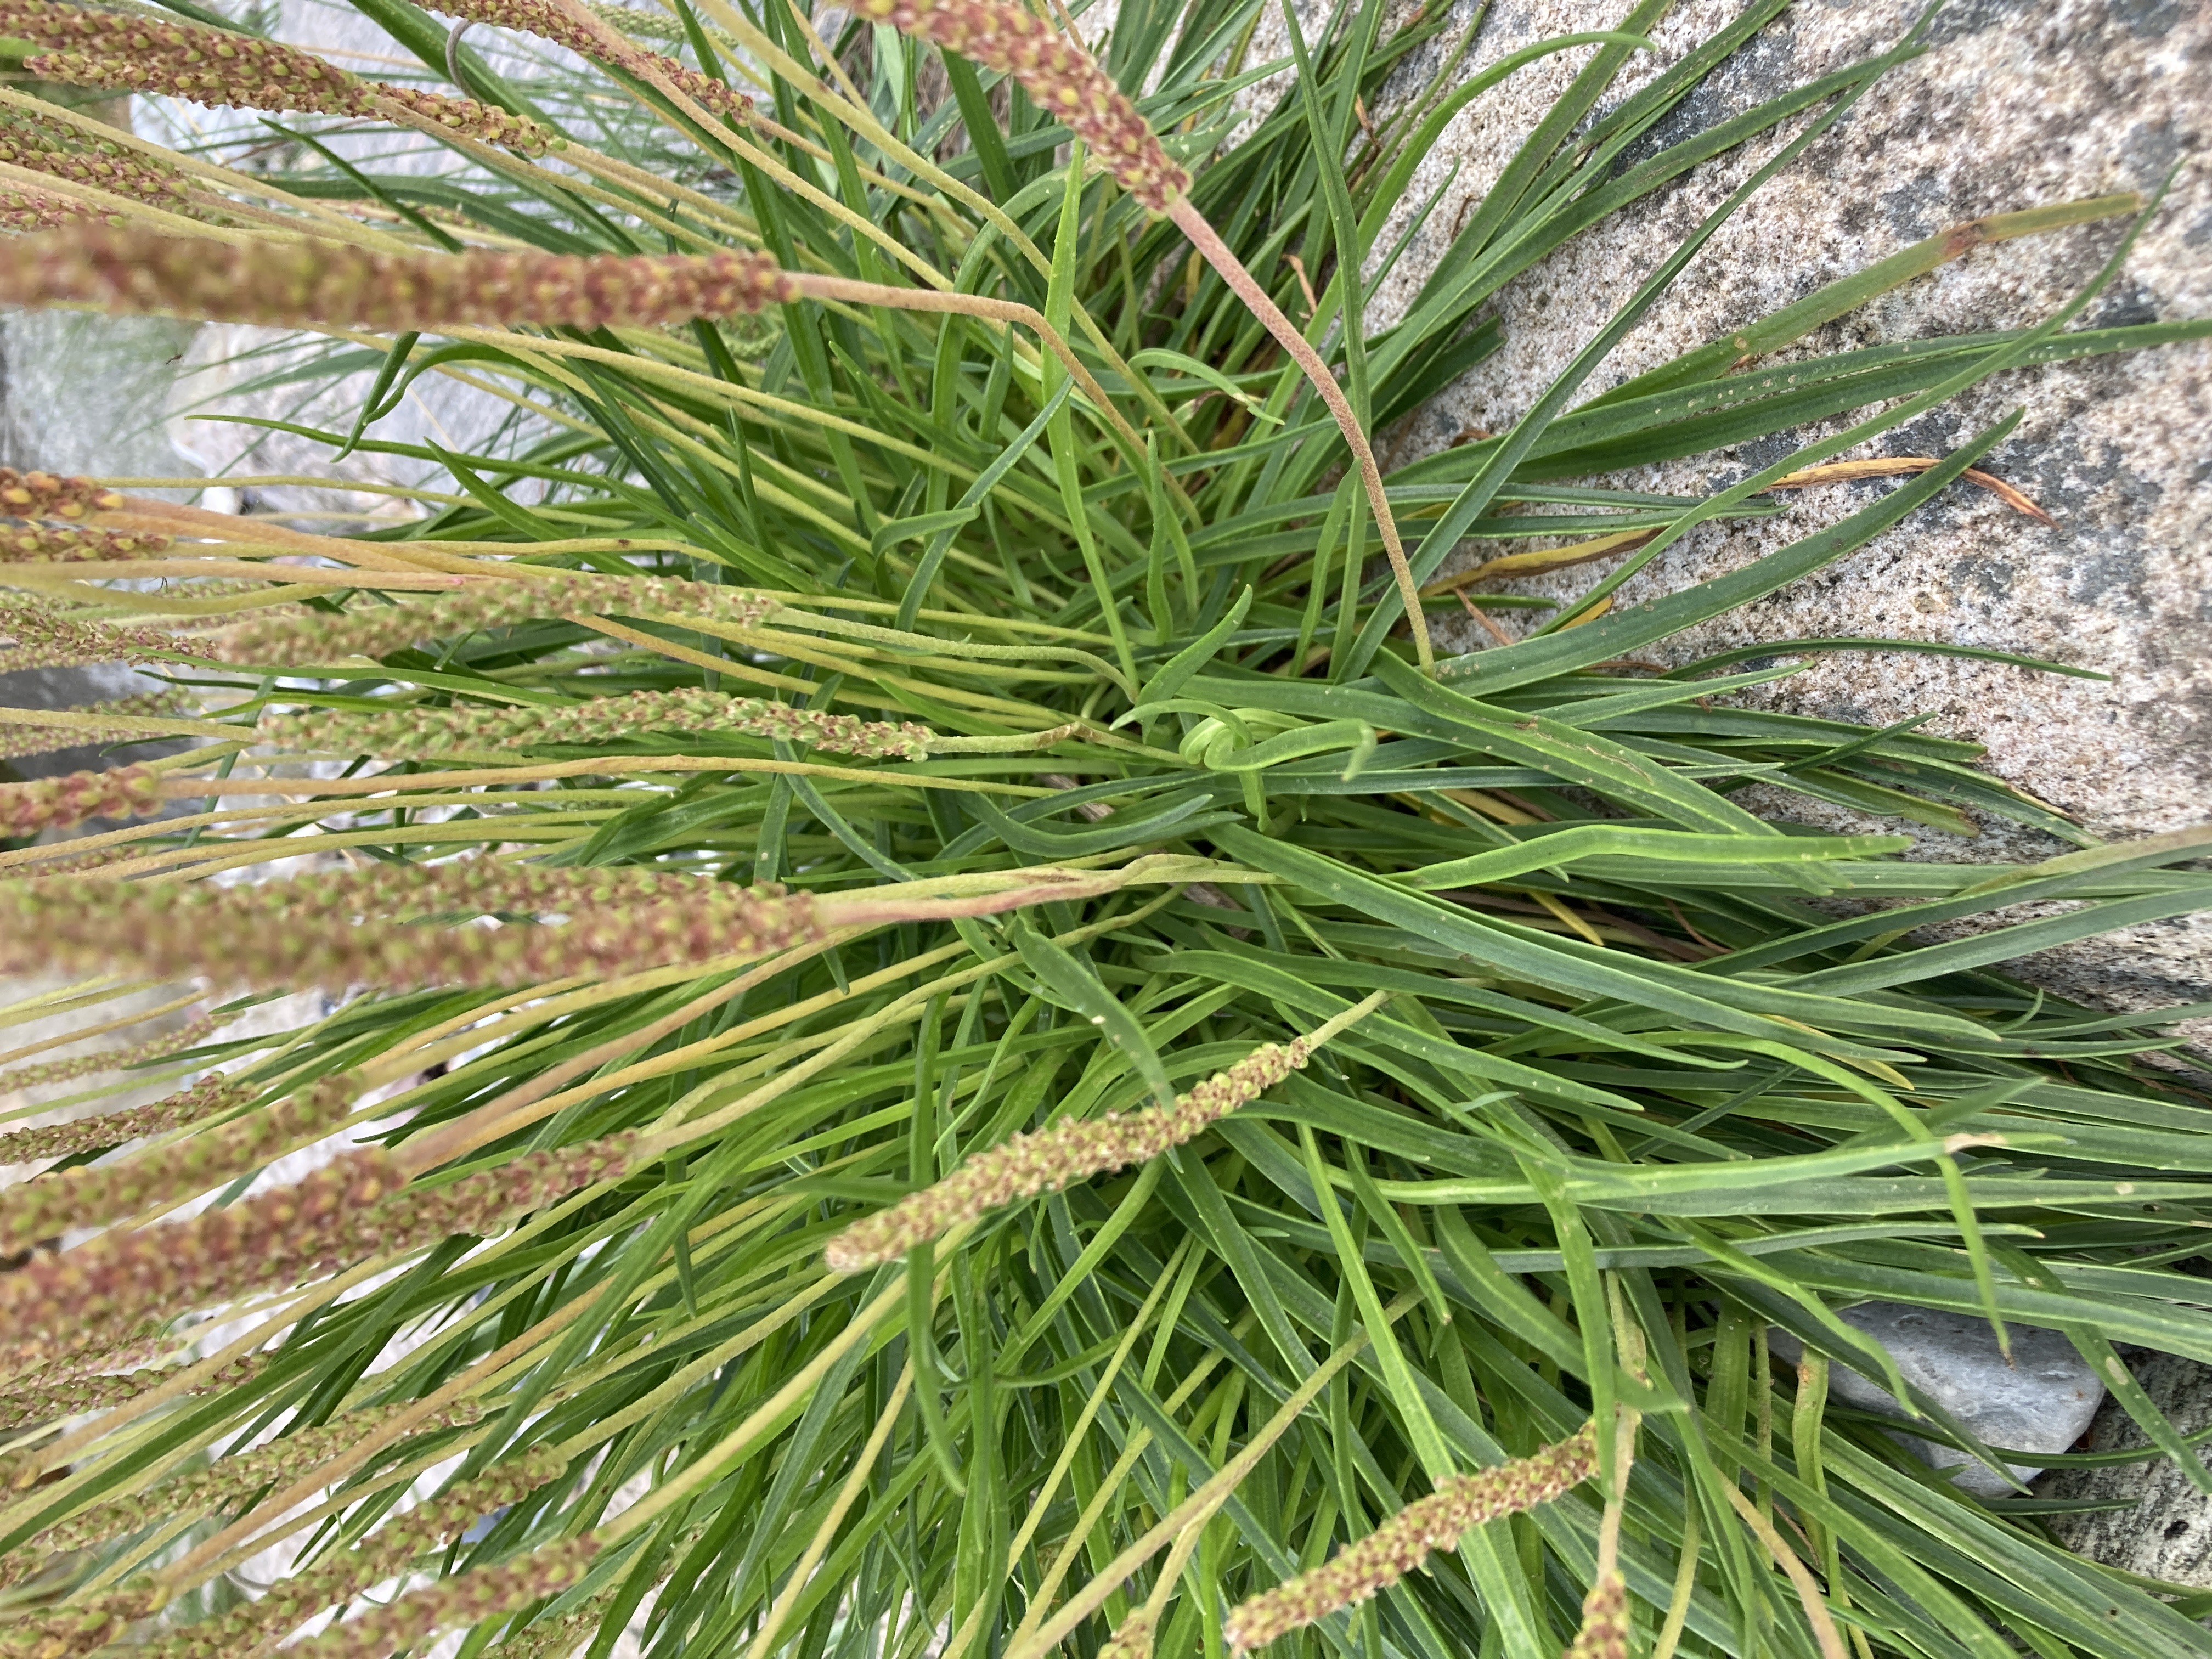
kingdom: Plantae
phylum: Tracheophyta
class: Magnoliopsida
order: Lamiales
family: Plantaginaceae
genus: Plantago
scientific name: Plantago maritima
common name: Strand-vejbred
